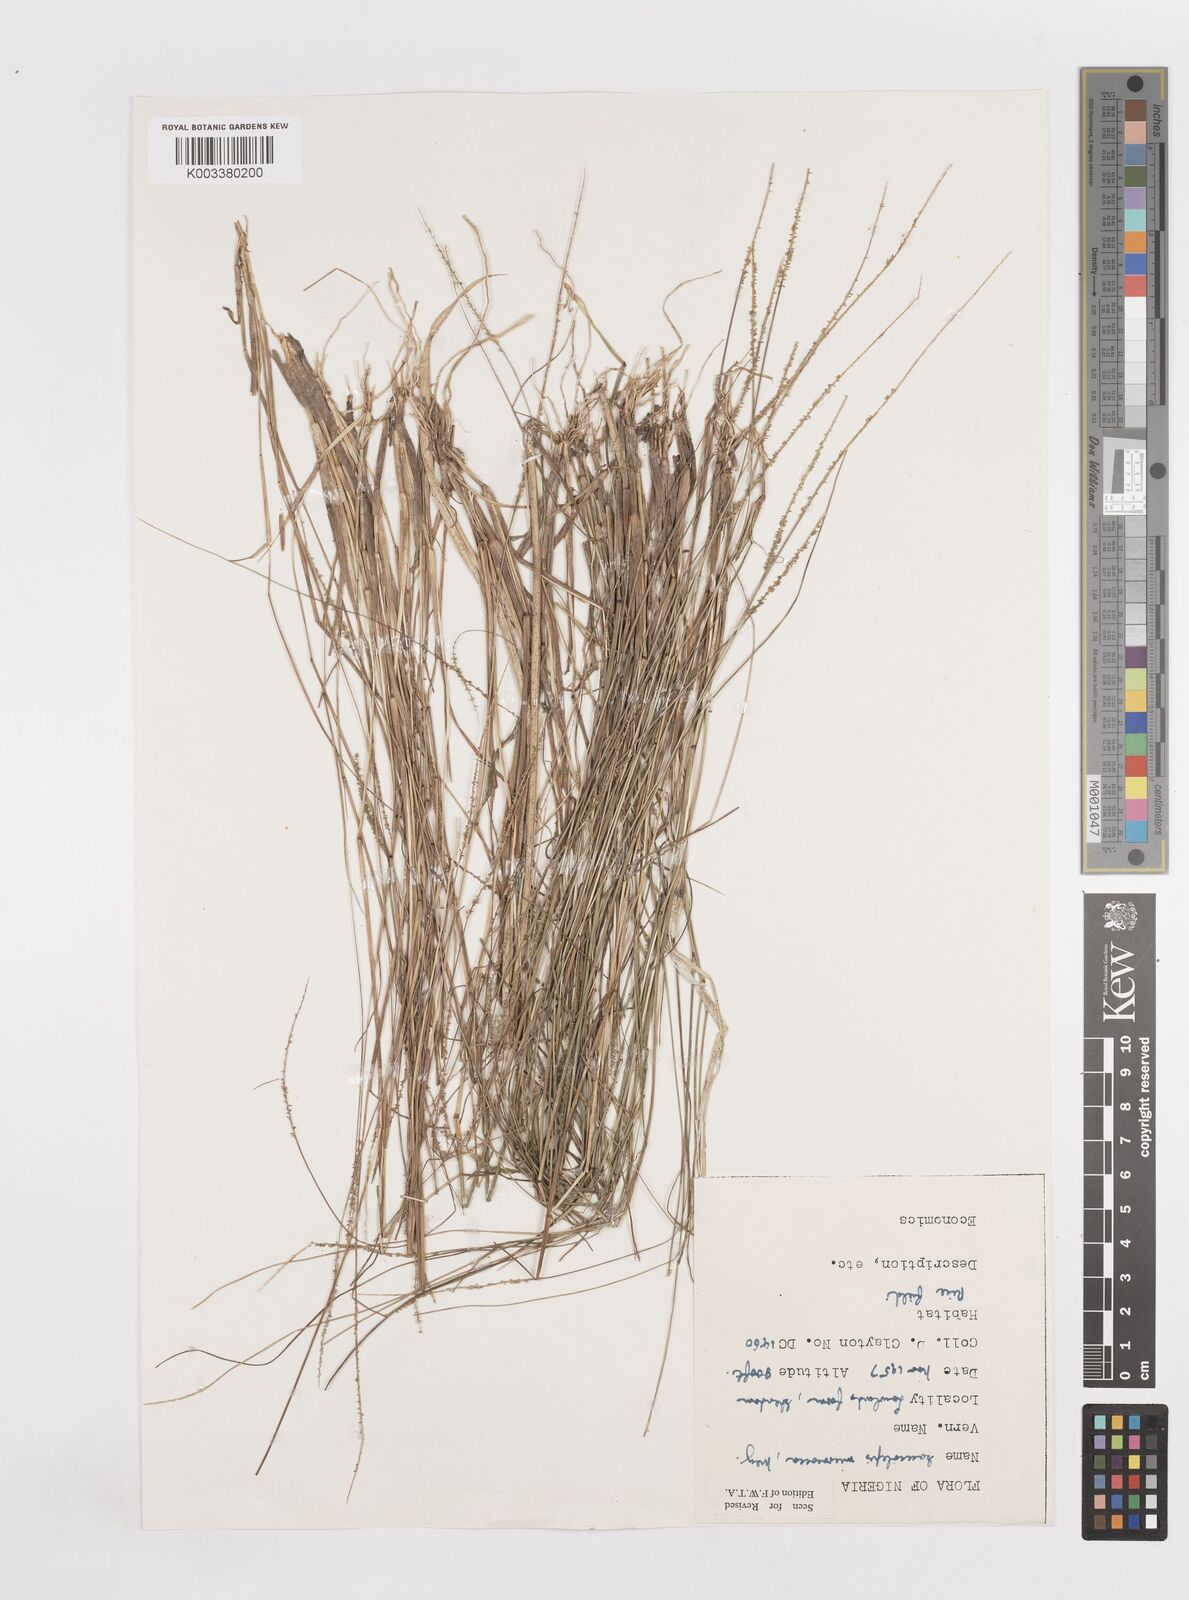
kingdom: Plantae
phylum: Tracheophyta
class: Liliopsida
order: Poales
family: Poaceae
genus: Sacciolepis
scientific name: Sacciolepis micrococca
